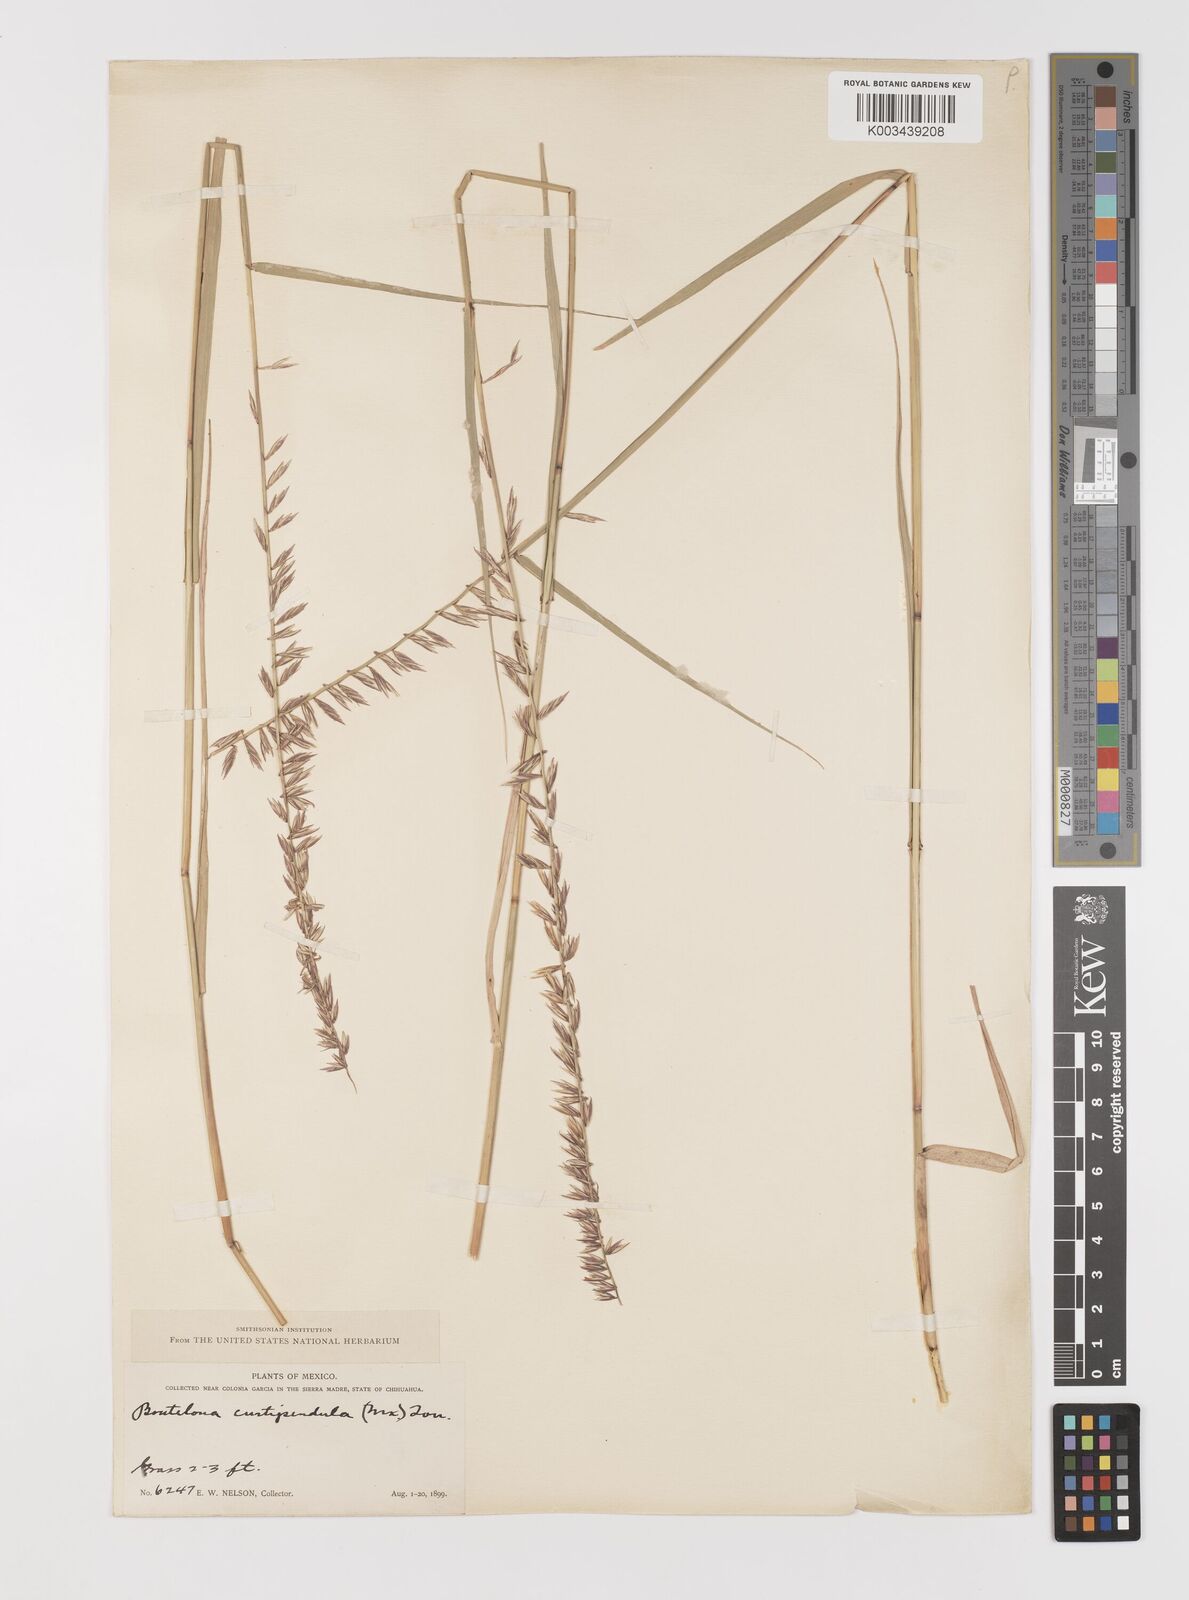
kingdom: Plantae
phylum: Tracheophyta
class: Liliopsida
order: Poales
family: Poaceae
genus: Bouteloua
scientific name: Bouteloua curtipendula
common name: Side-oats grama
